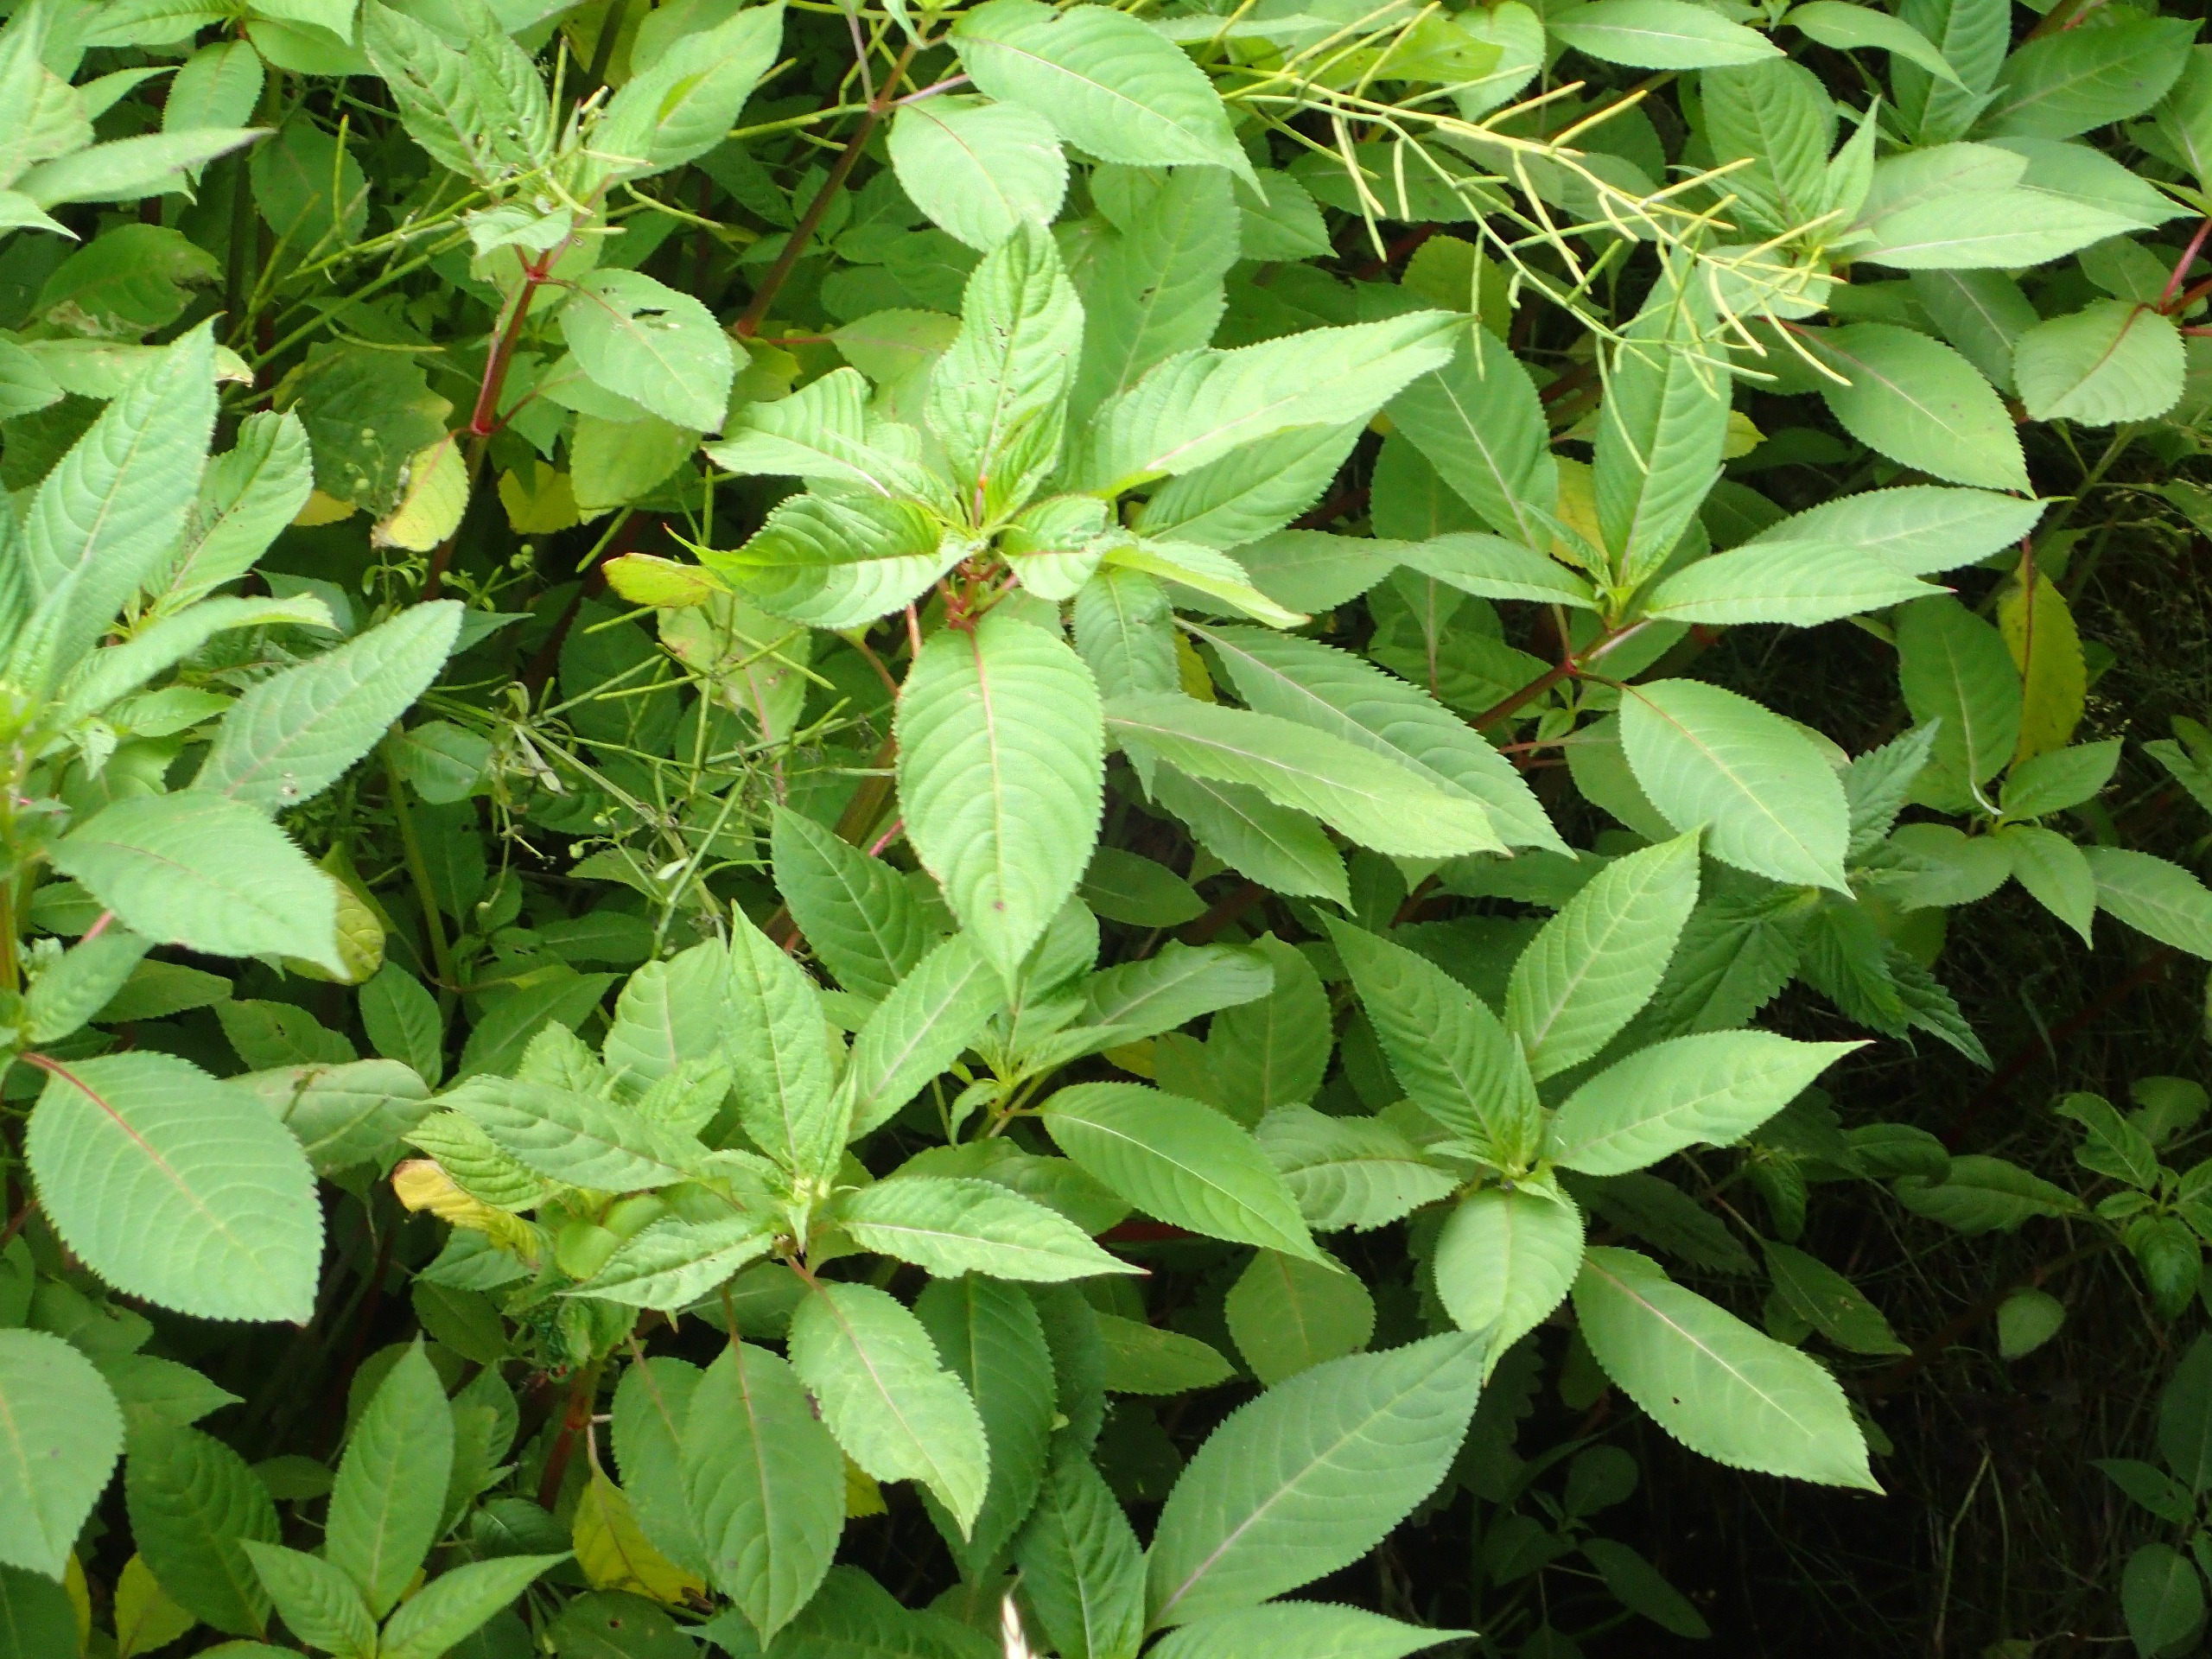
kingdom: Plantae
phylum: Tracheophyta
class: Magnoliopsida
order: Ericales
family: Balsaminaceae
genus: Impatiens
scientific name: Impatiens glandulifera
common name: Kæmpe-balsamin
